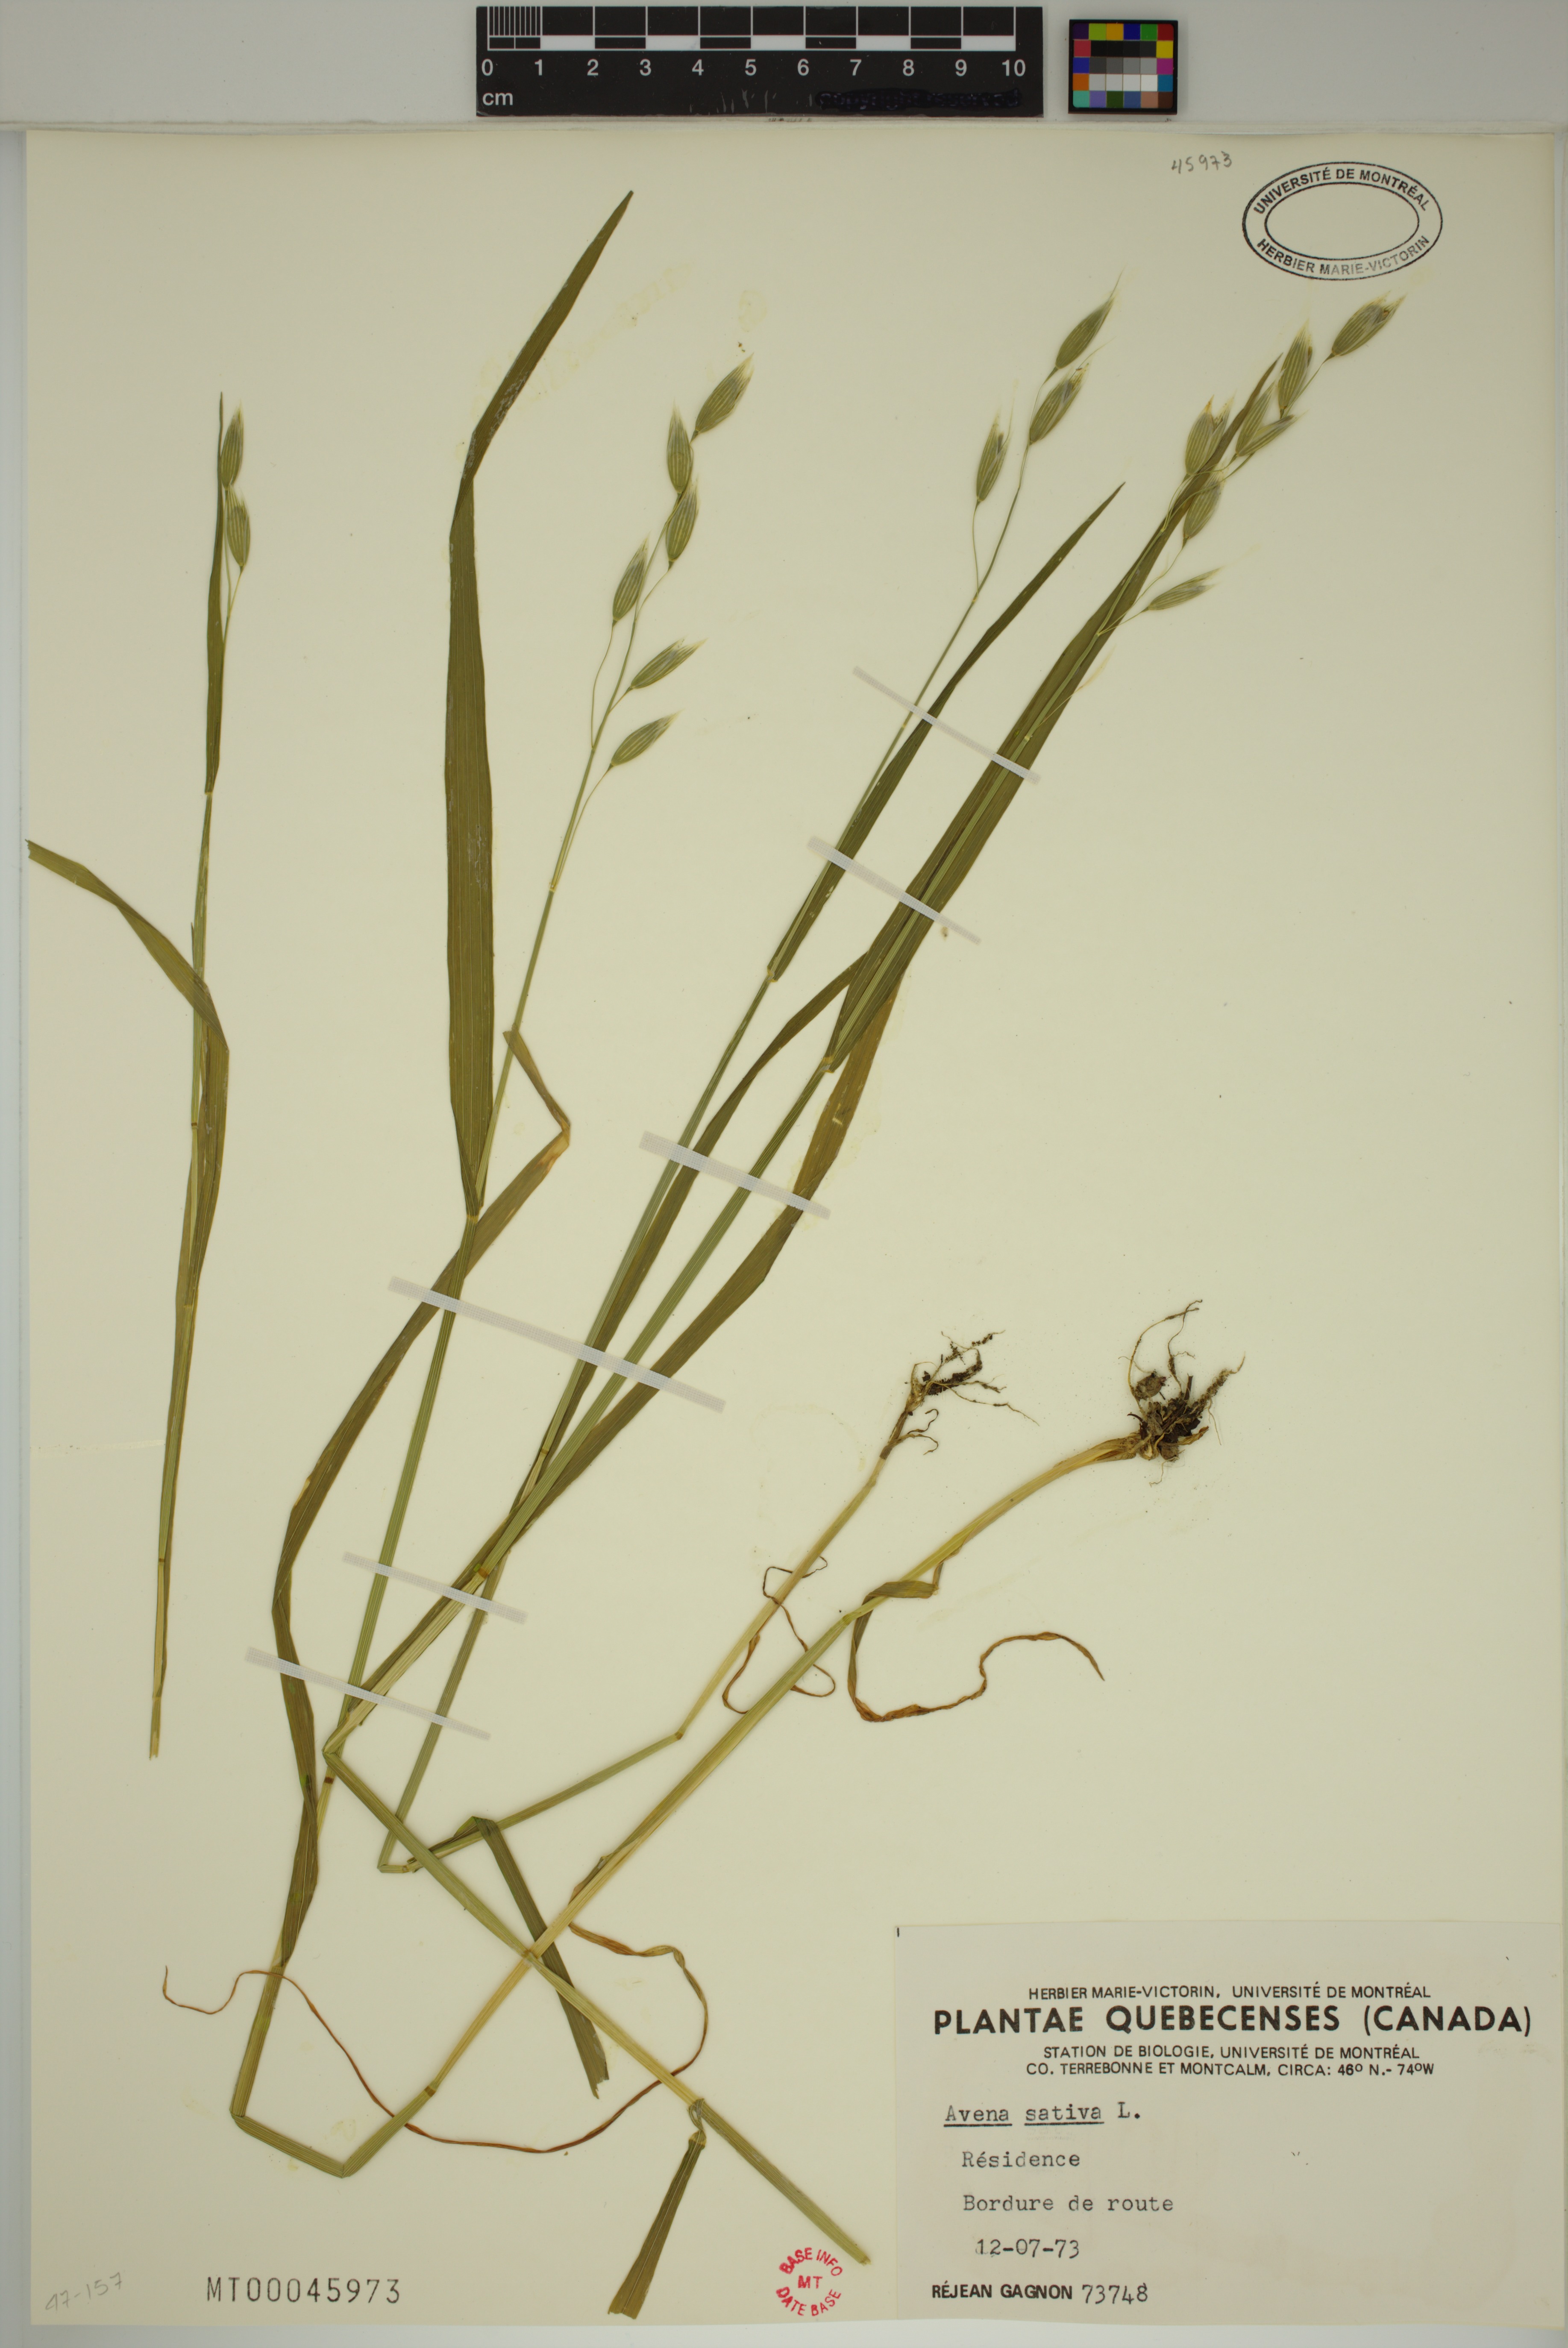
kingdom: Plantae
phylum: Tracheophyta
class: Liliopsida
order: Poales
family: Poaceae
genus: Avena
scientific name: Avena sativa
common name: Oat
